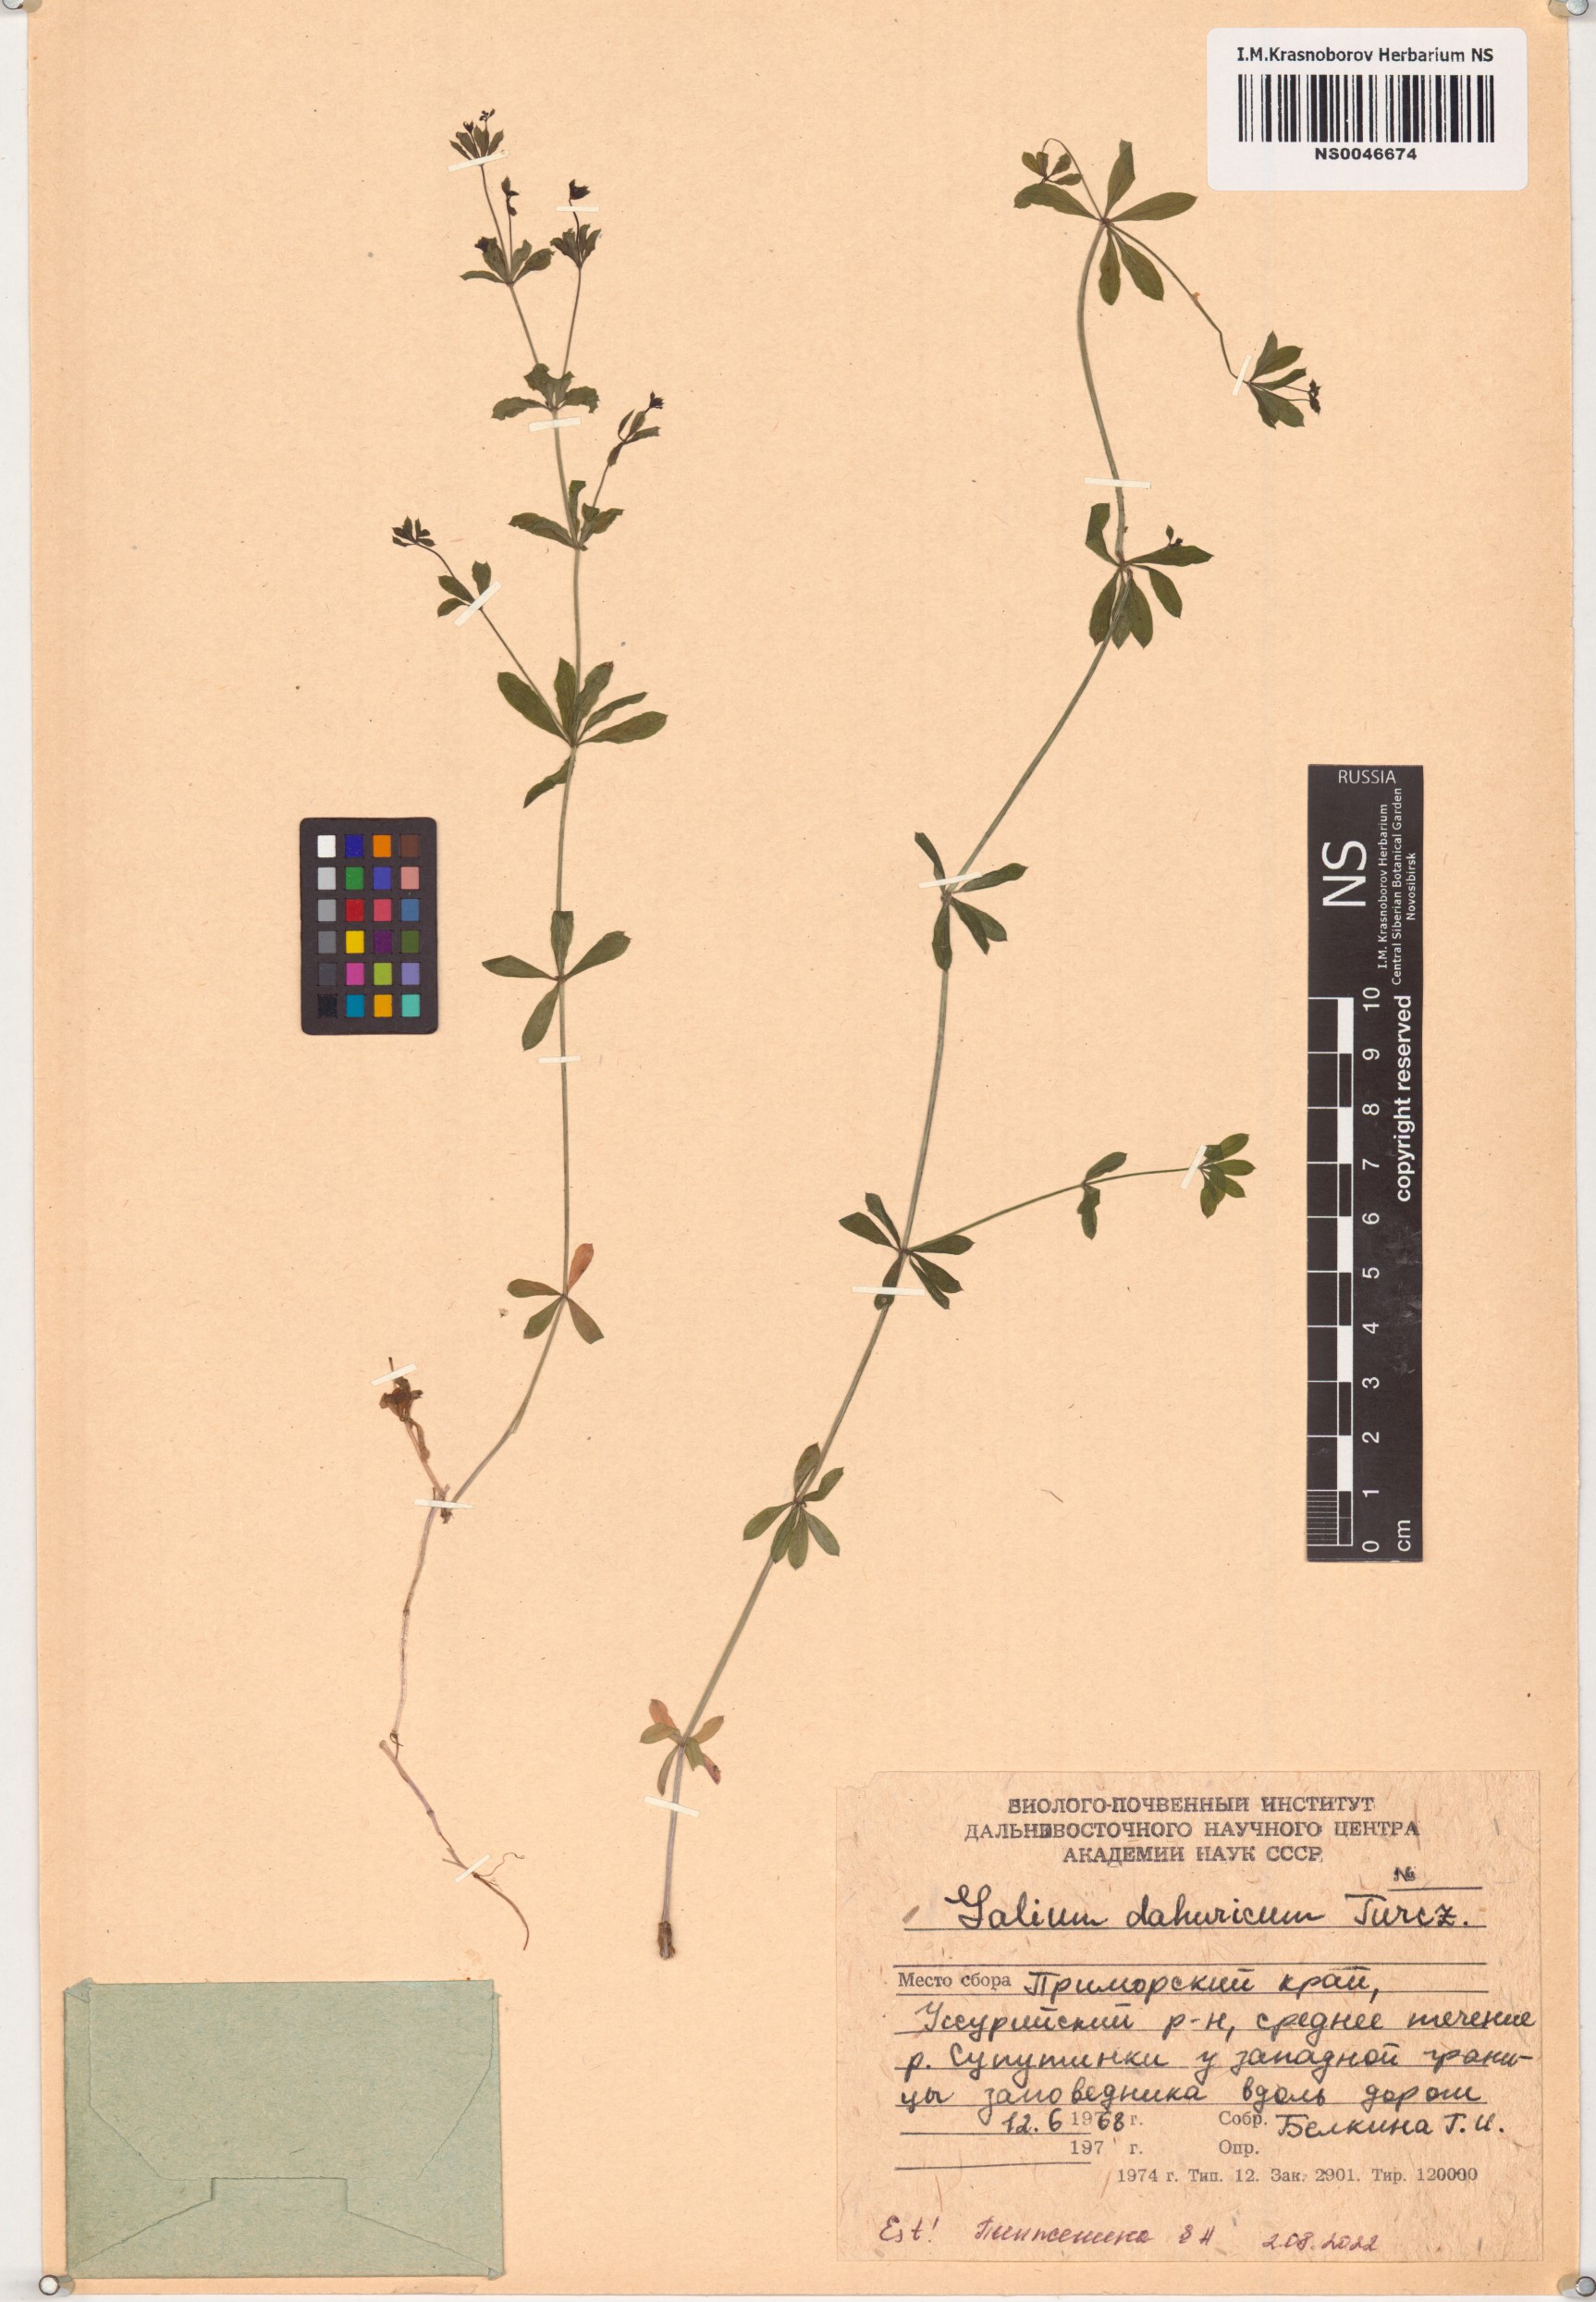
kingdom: Plantae
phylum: Tracheophyta
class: Magnoliopsida
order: Gentianales
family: Rubiaceae
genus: Galium
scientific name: Galium dahuricum
